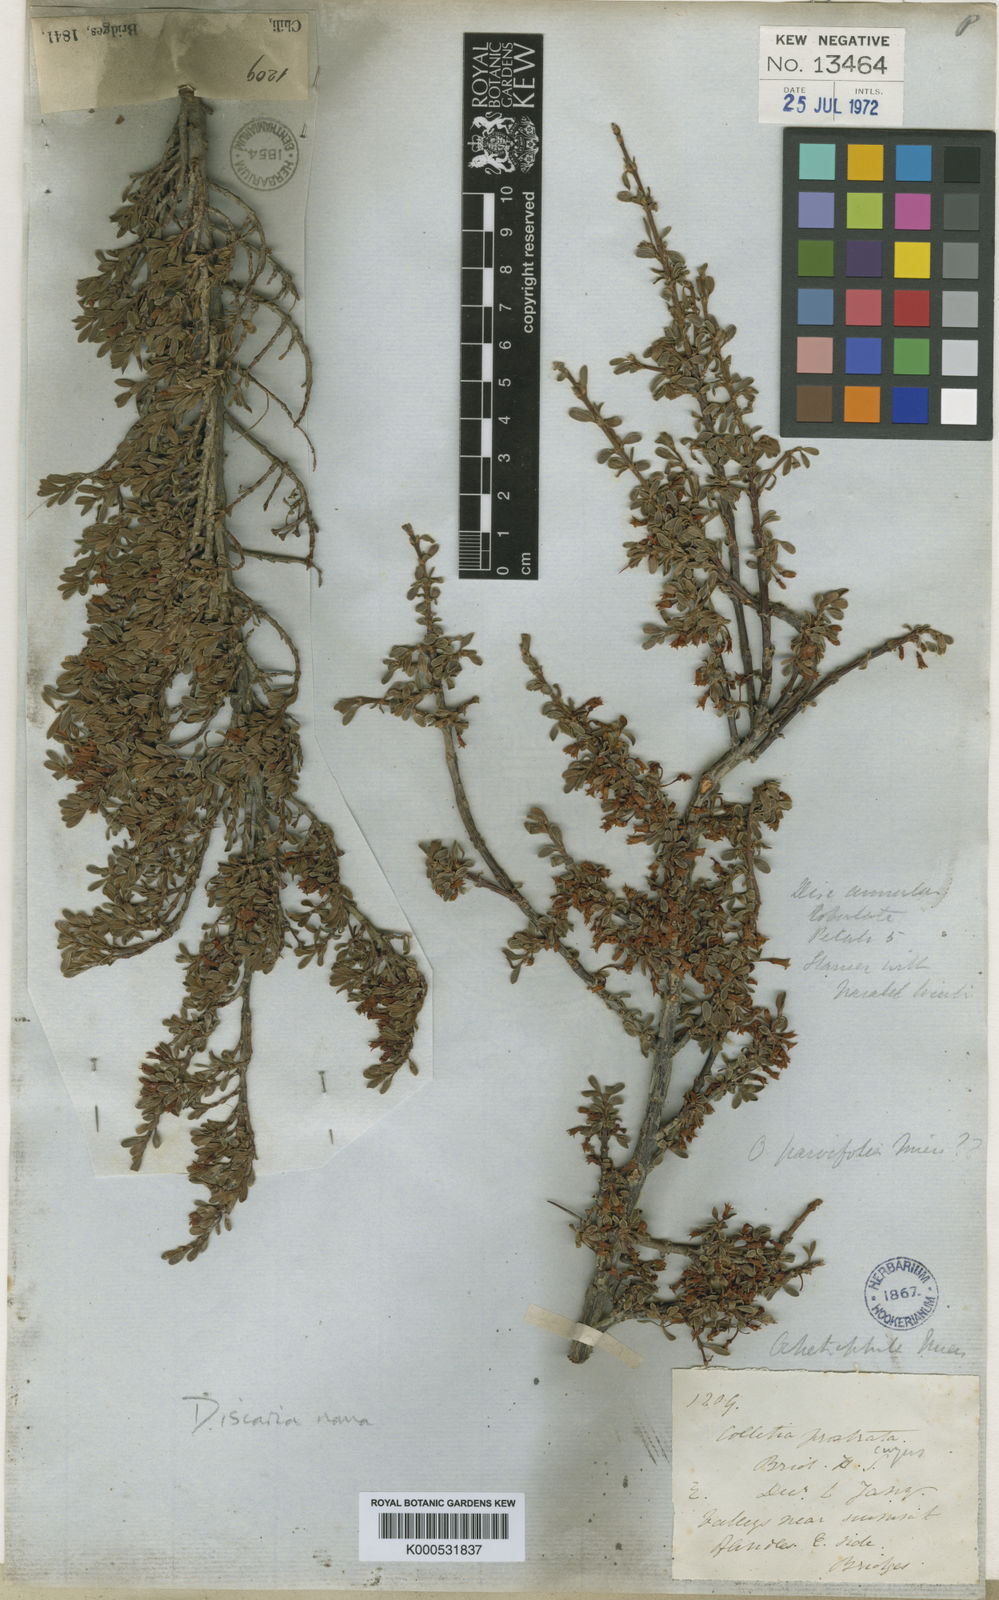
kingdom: Plantae
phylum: Tracheophyta
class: Magnoliopsida
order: Rosales
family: Rhamnaceae
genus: Discaria
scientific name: Discaria nana
